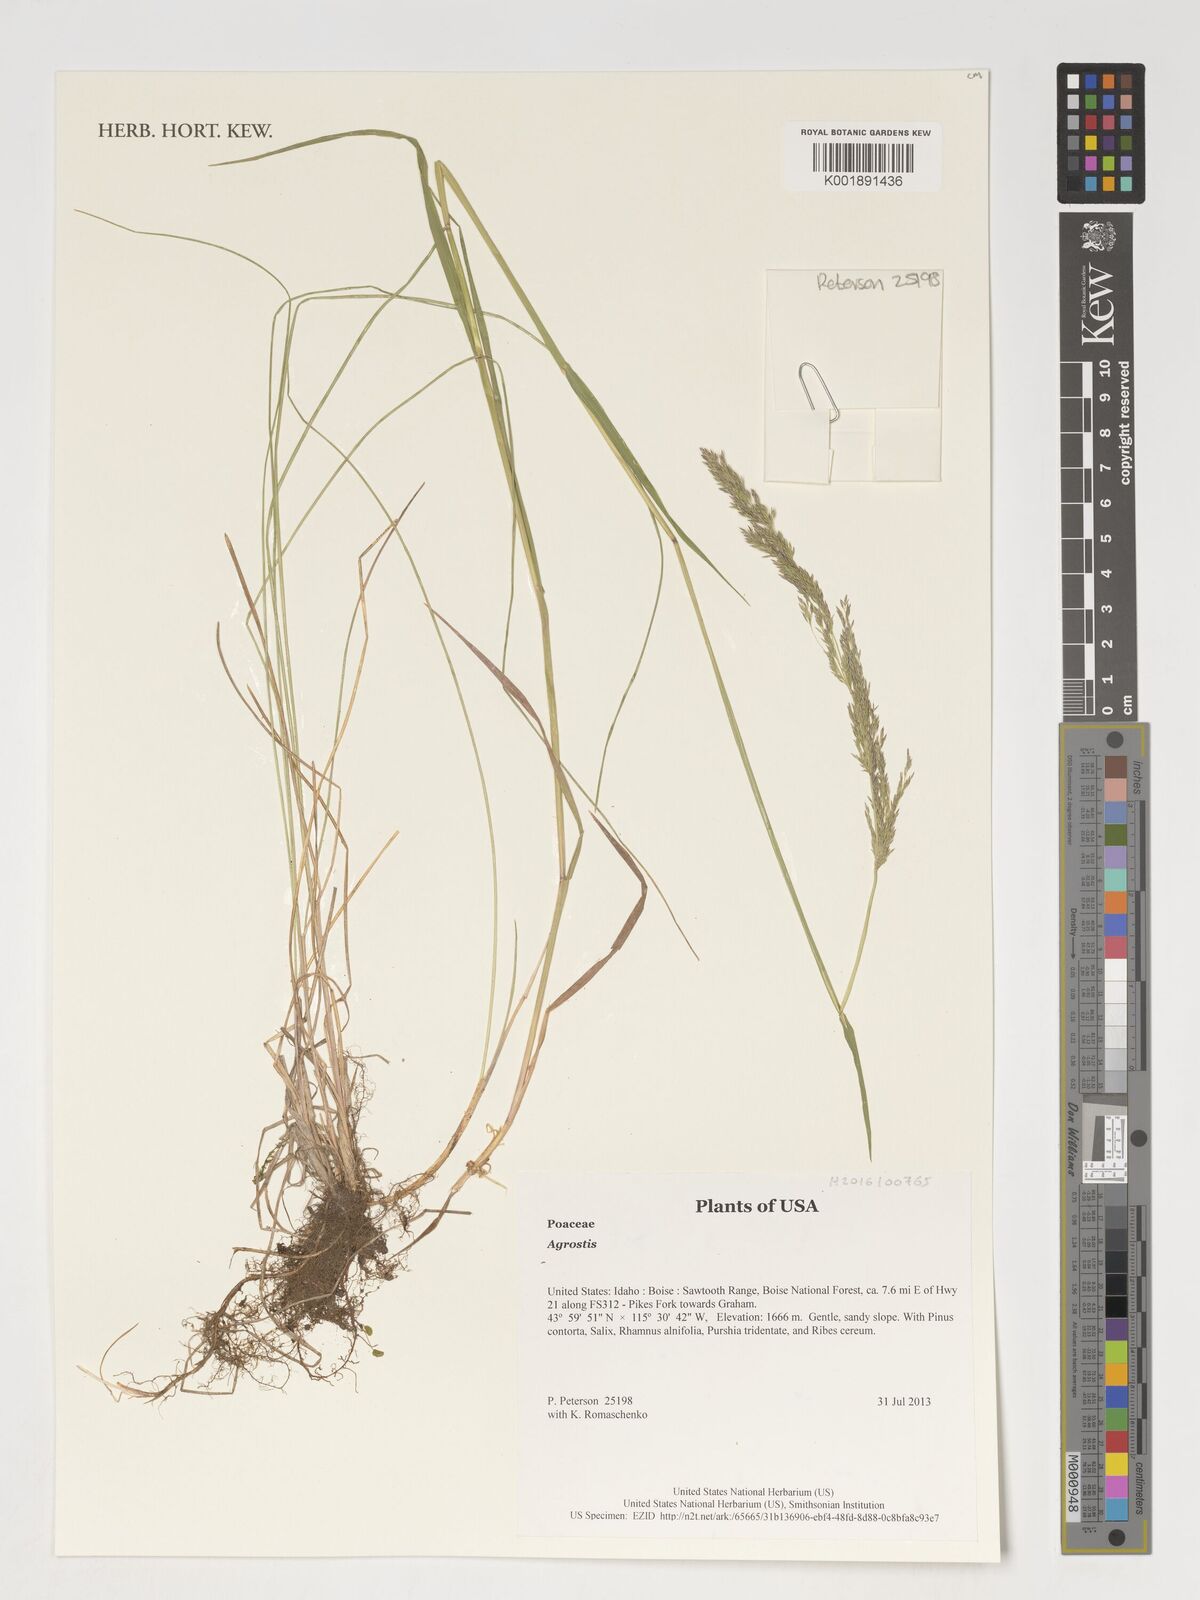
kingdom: Plantae
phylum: Tracheophyta
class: Liliopsida
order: Poales
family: Poaceae
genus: Agrostis
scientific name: Agrostis
